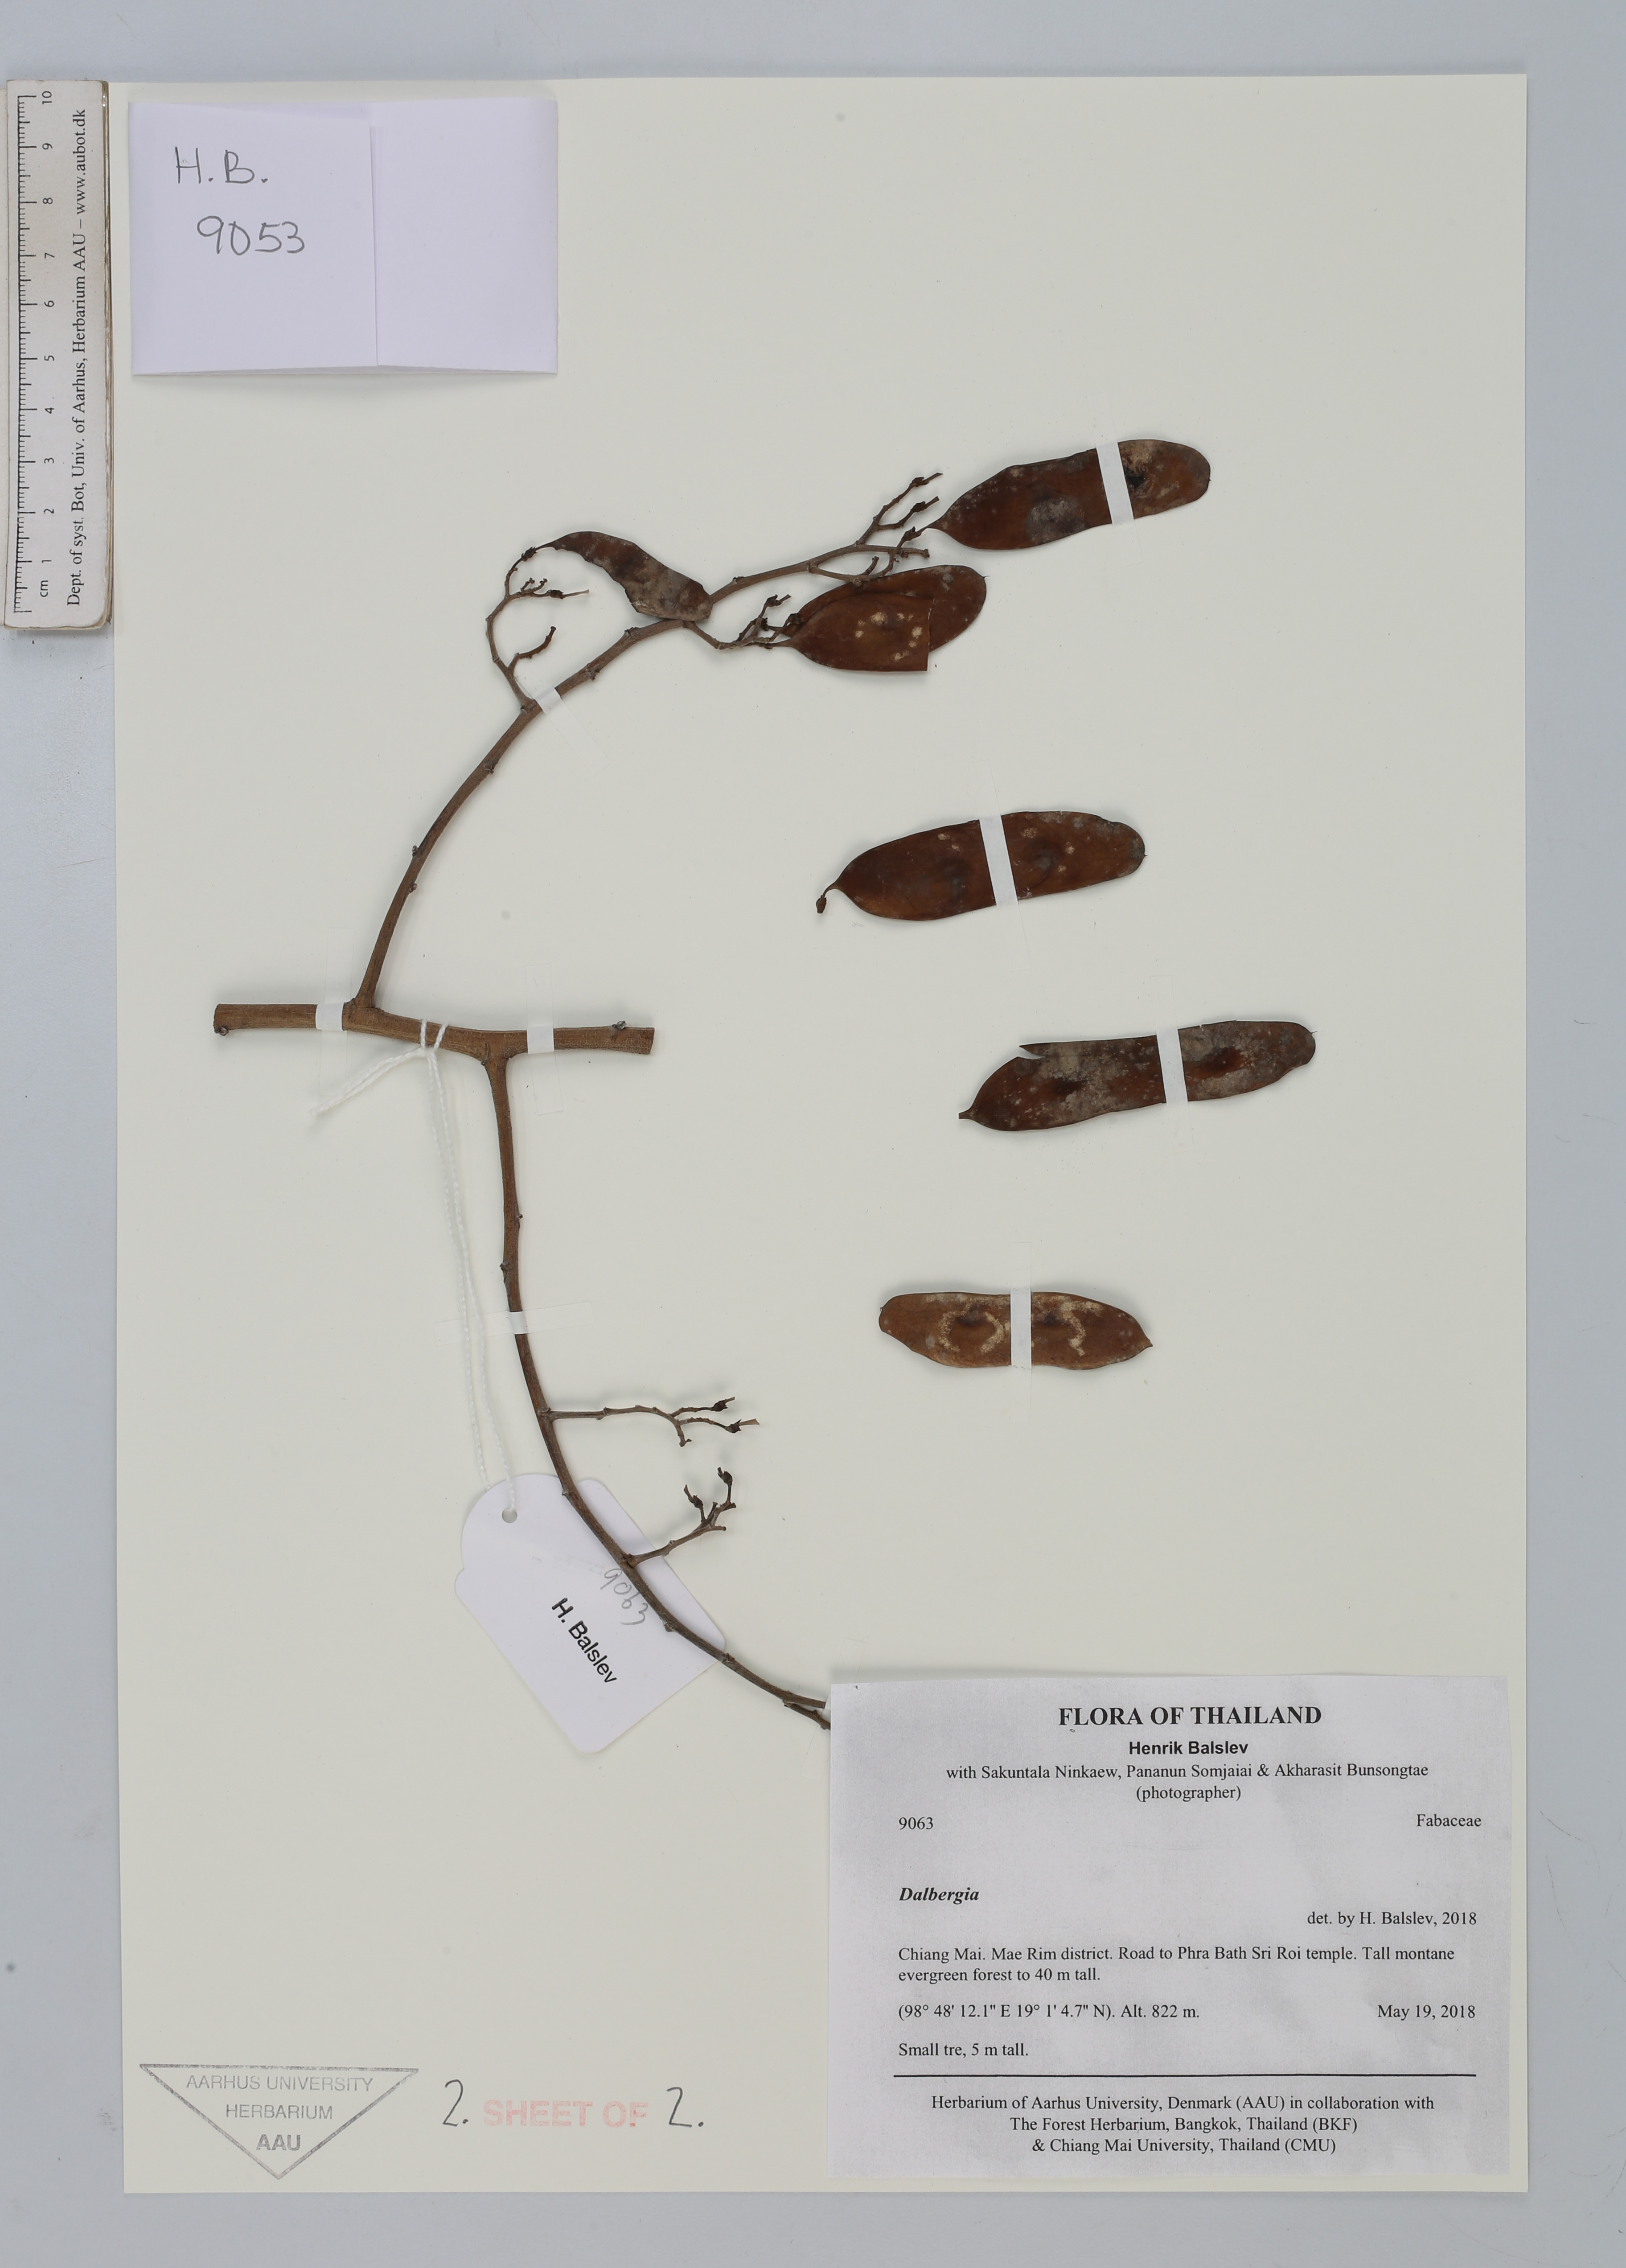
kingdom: Plantae
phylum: Tracheophyta
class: Magnoliopsida
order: Fabales
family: Fabaceae
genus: Dalbergia
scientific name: Dalbergia
